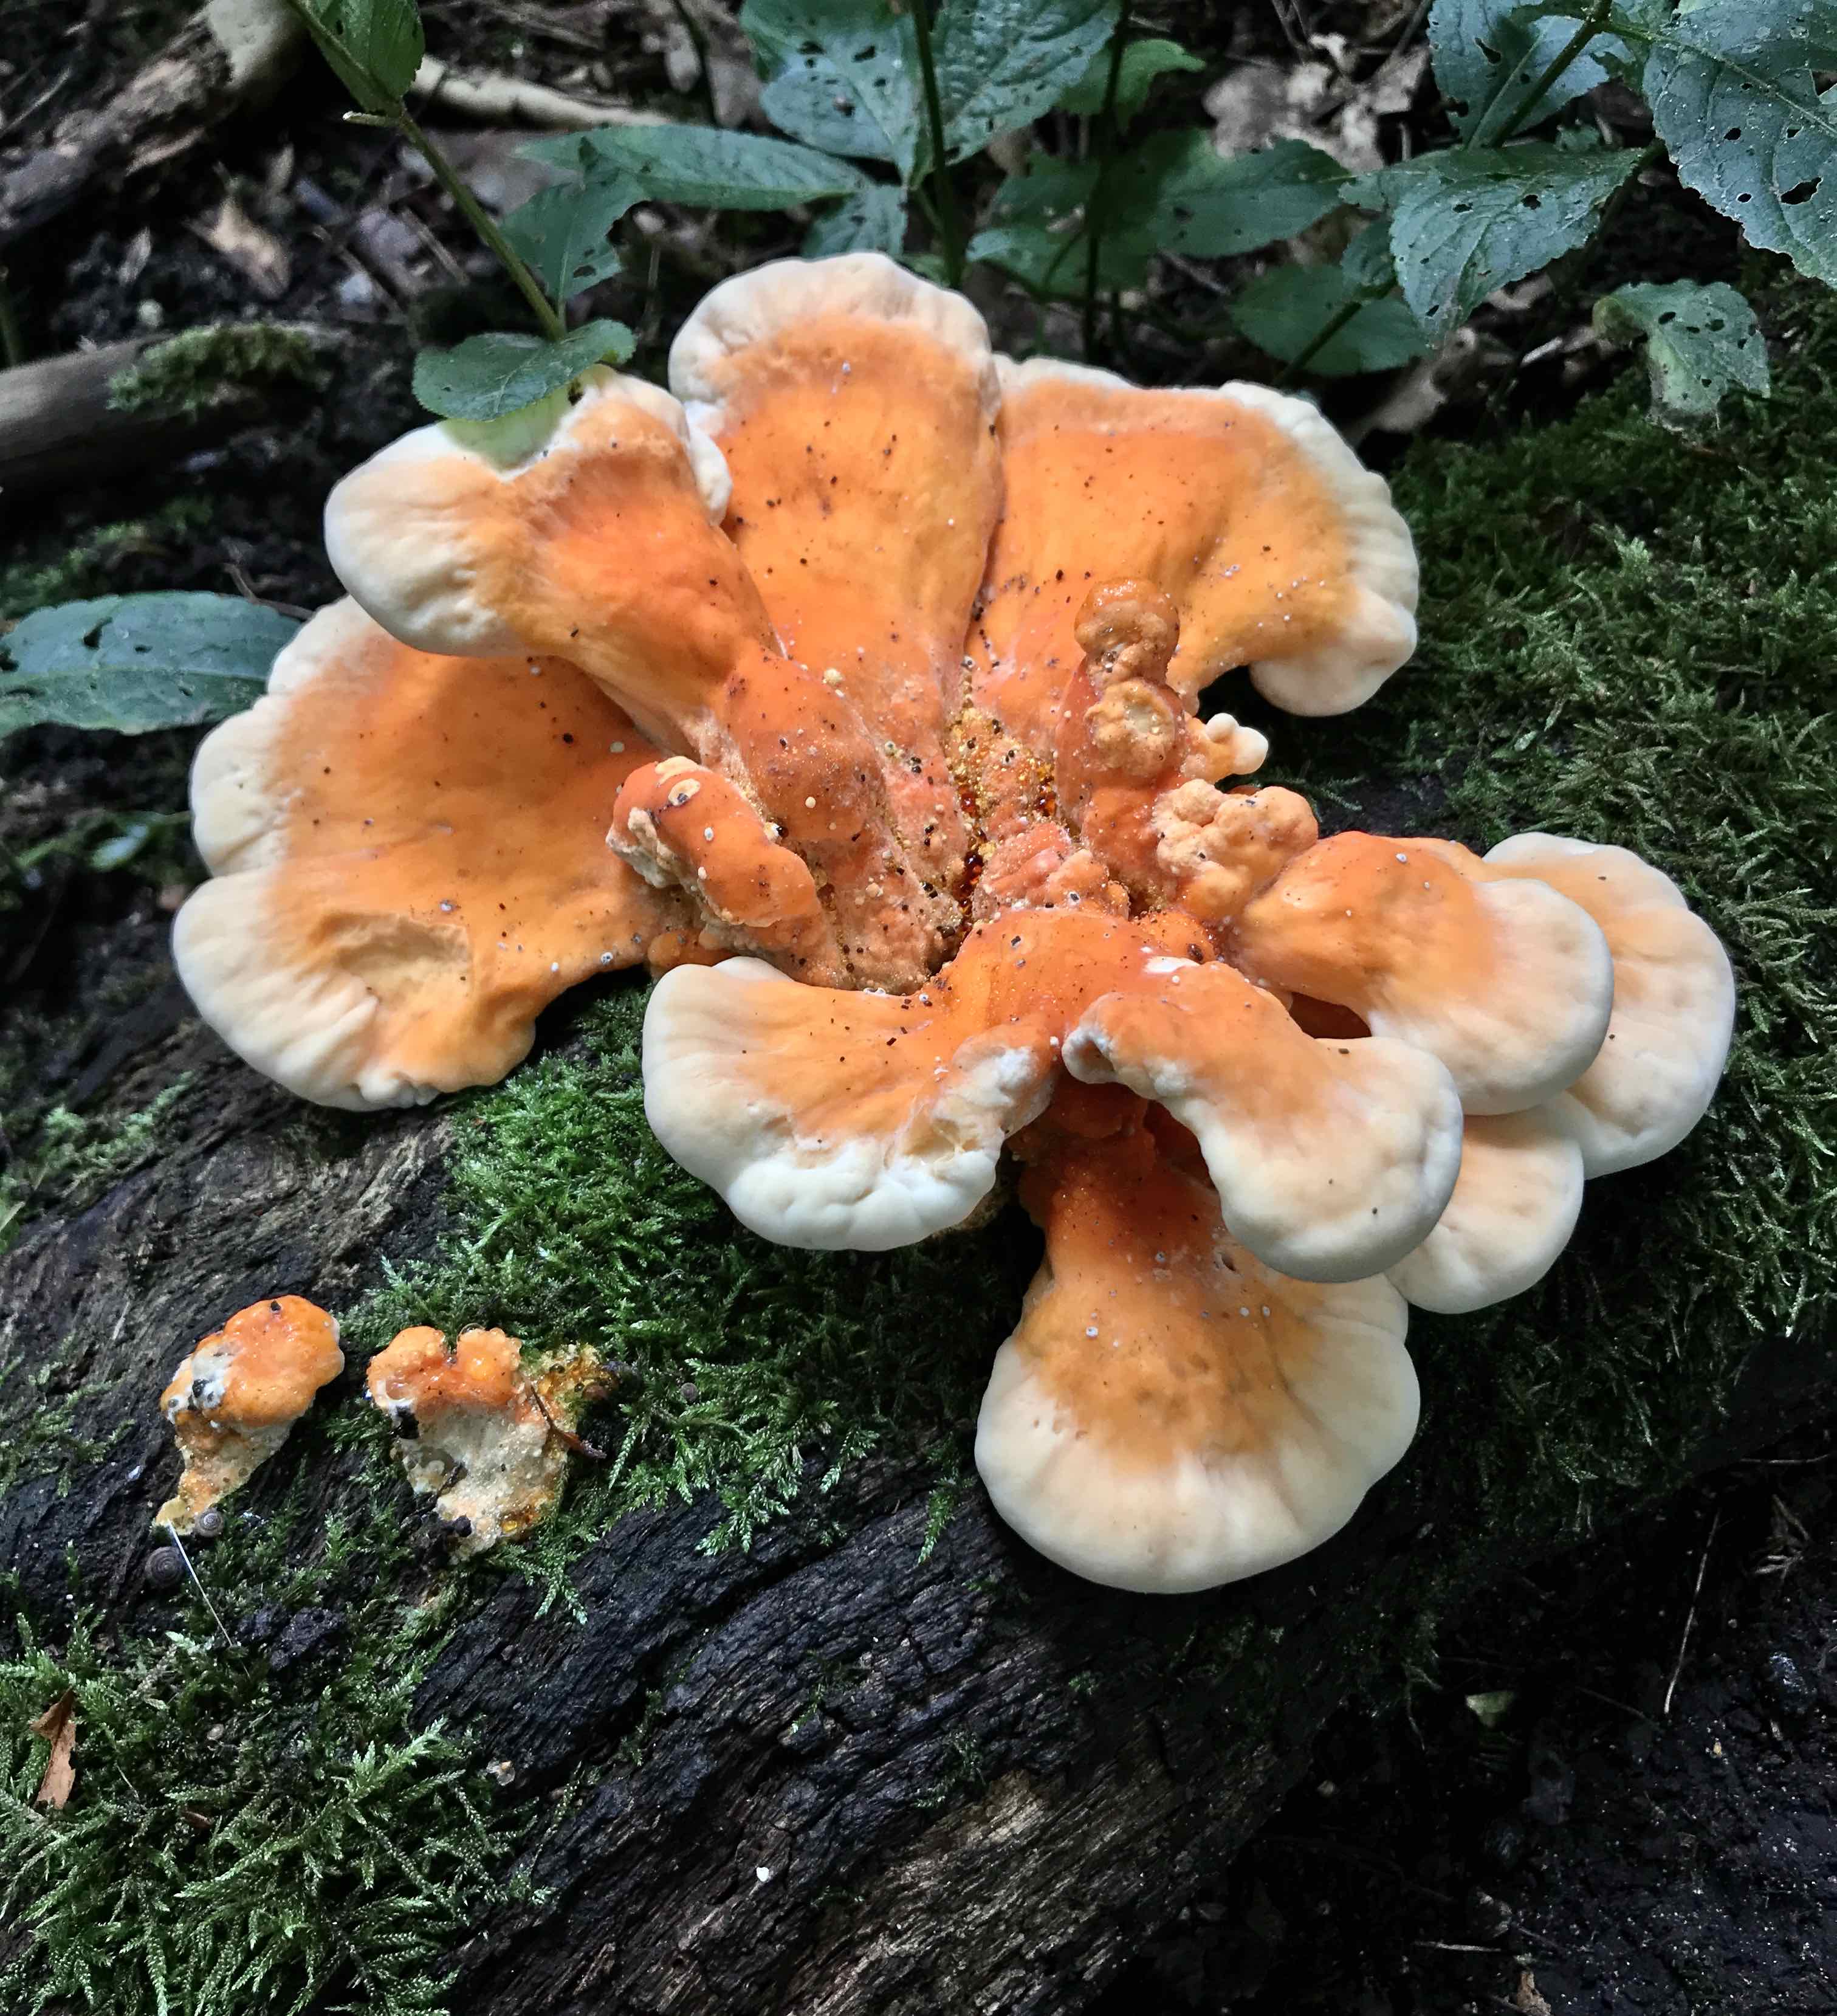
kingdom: Fungi
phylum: Basidiomycota
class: Agaricomycetes
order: Polyporales
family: Laetiporaceae
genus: Laetiporus
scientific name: Laetiporus sulphureus
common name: svovlporesvamp
